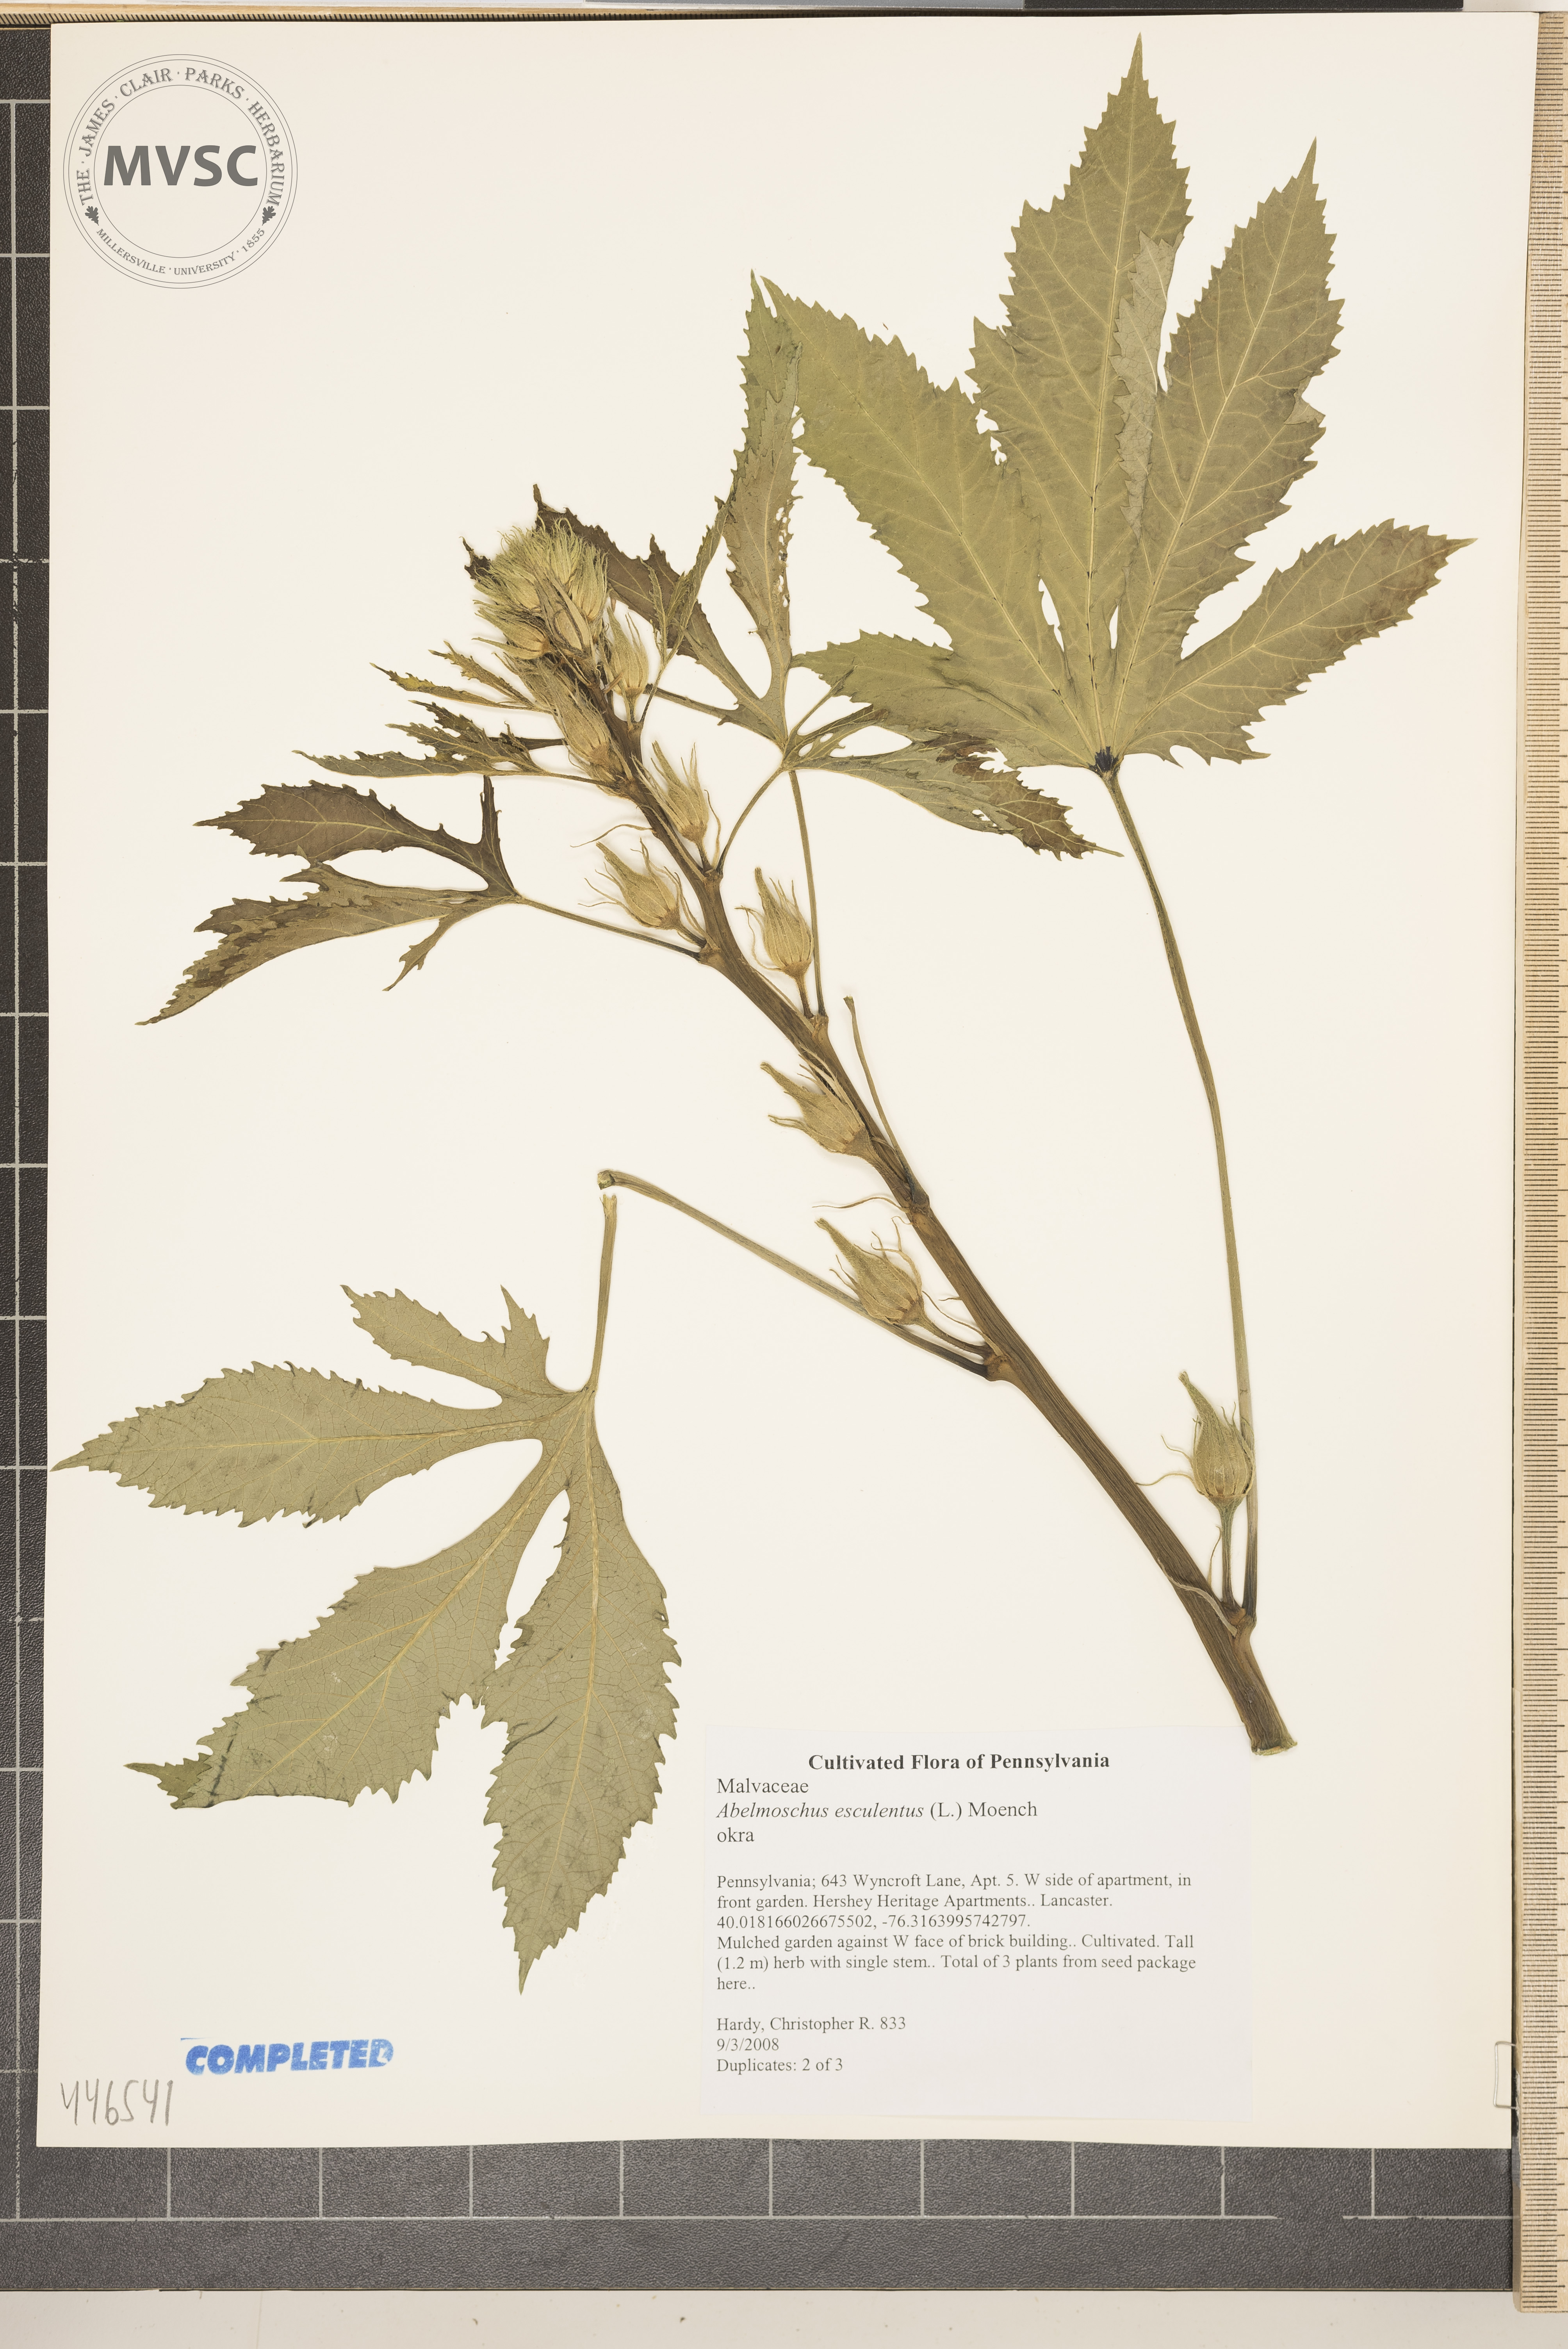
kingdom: Plantae
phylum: Tracheophyta
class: Magnoliopsida
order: Malvales
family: Malvaceae
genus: Abelmoschus
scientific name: Abelmoschus esculentus
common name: Okra
